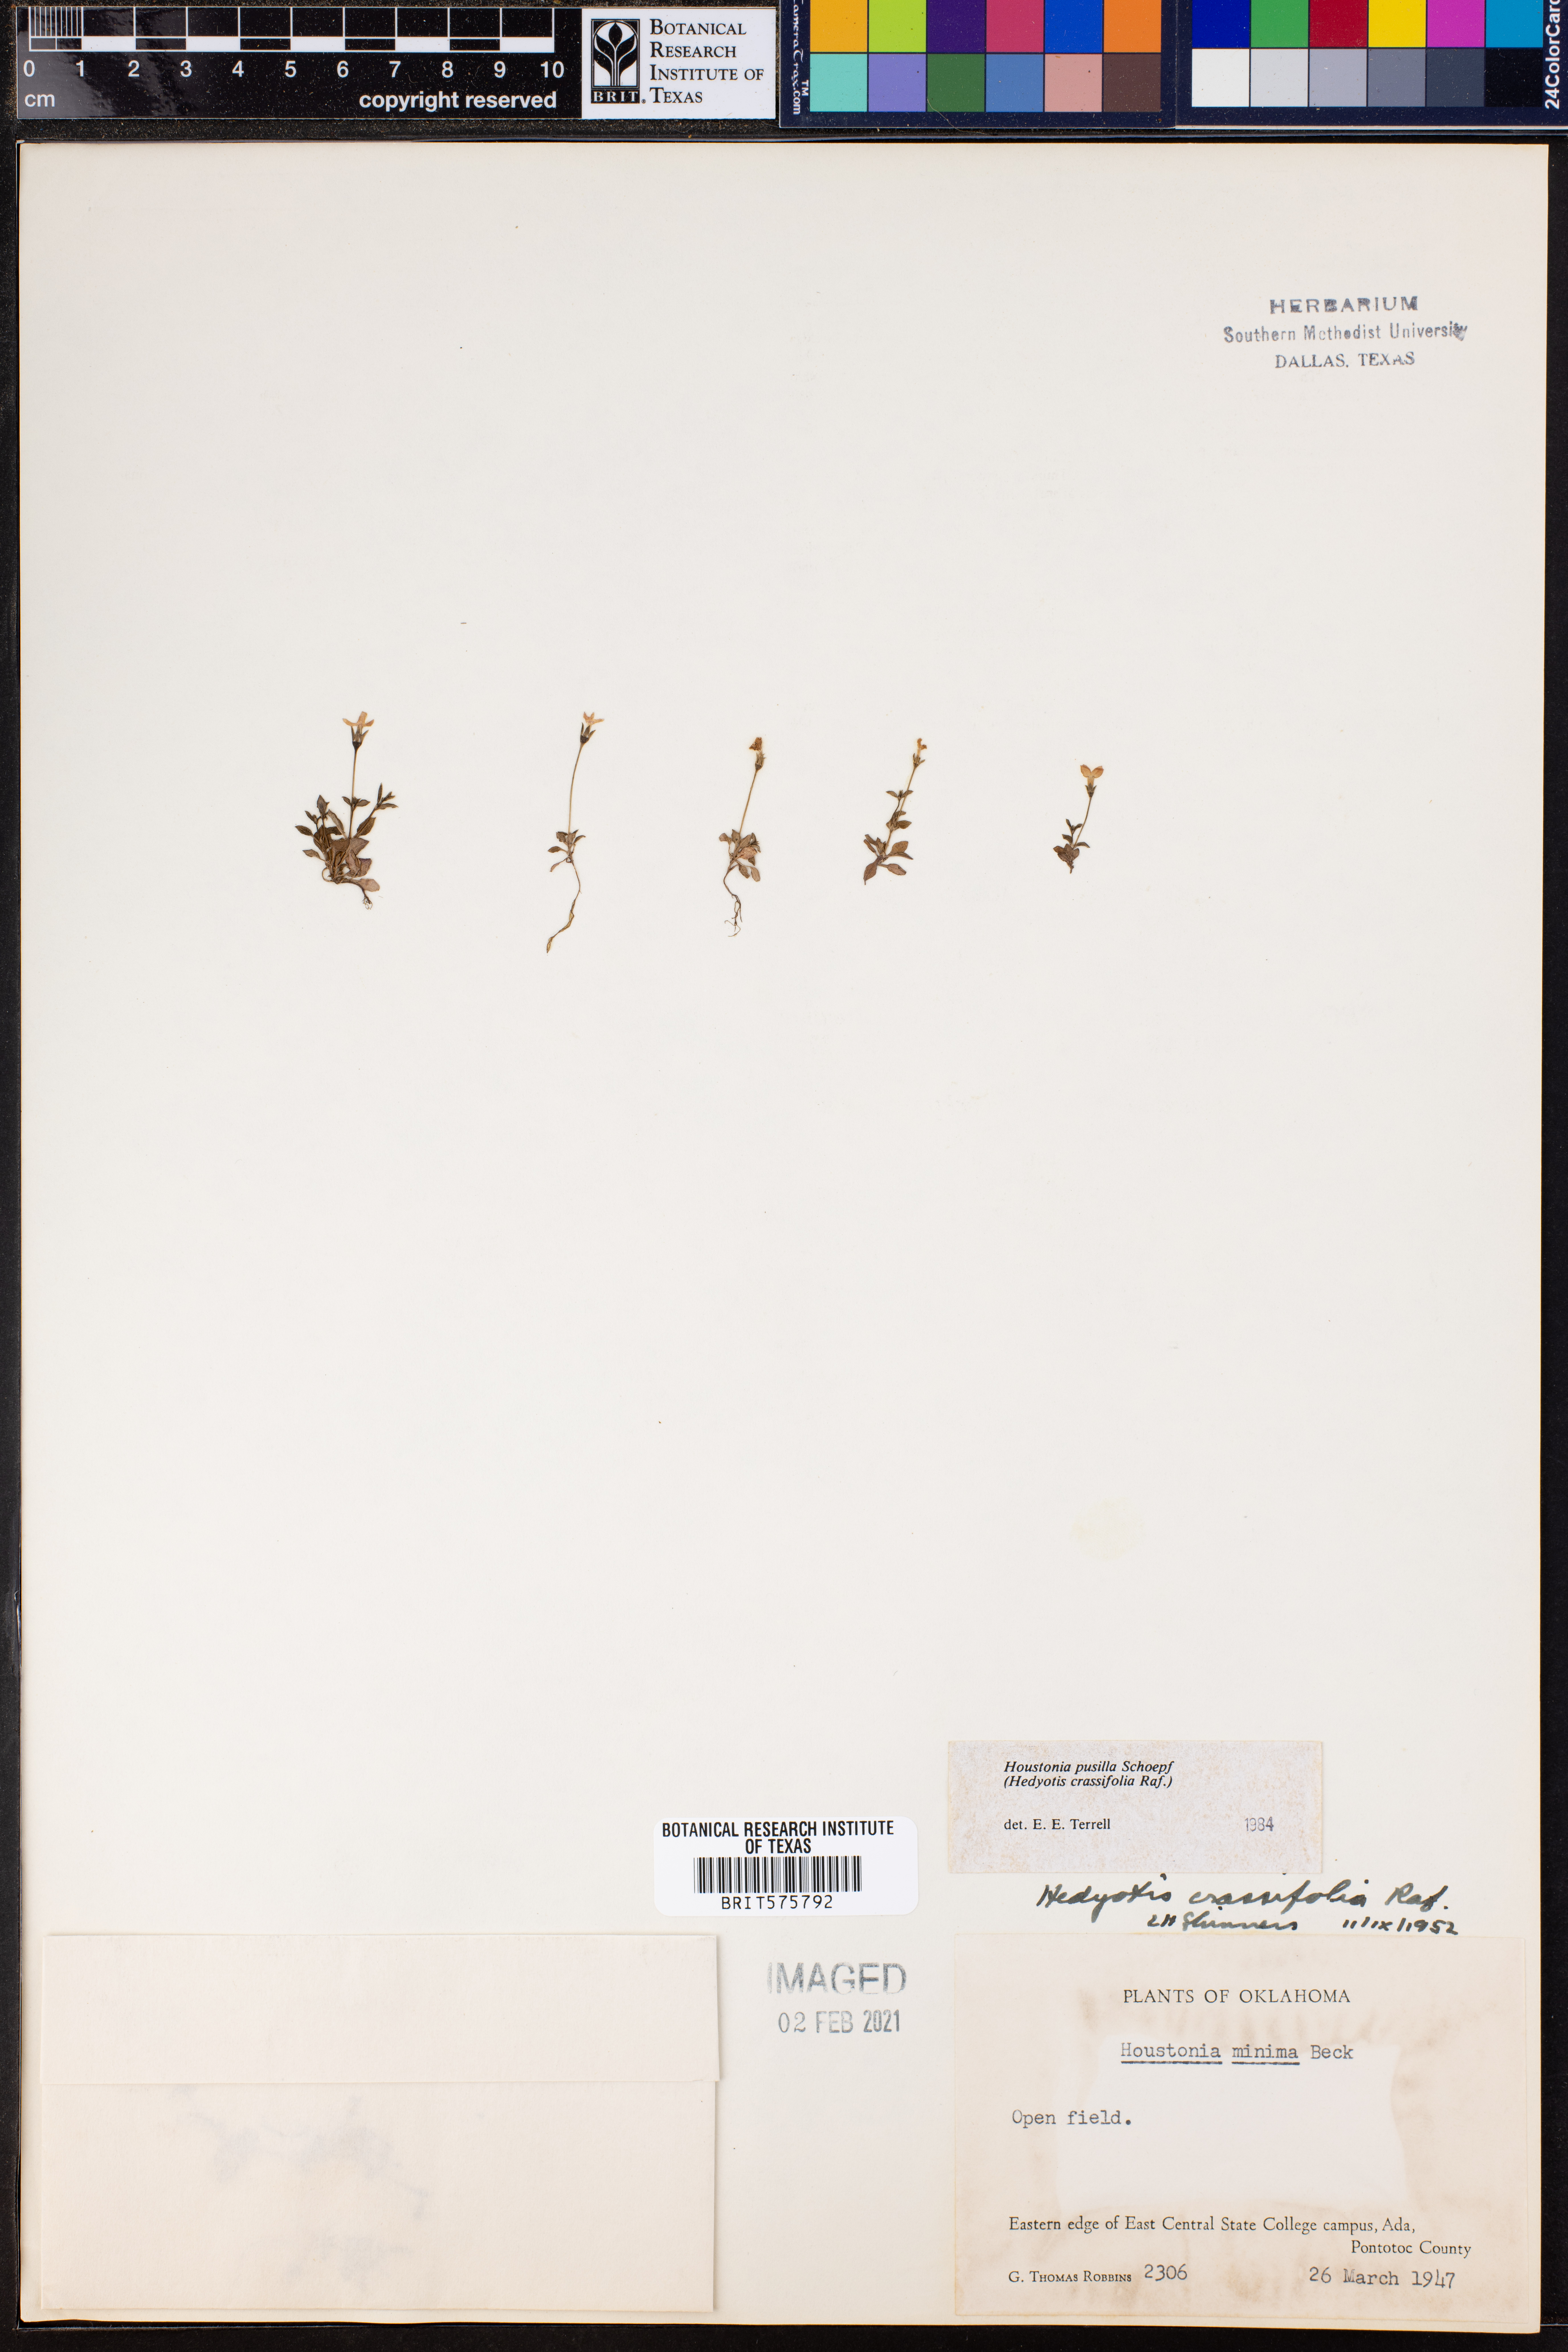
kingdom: Plantae
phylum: Tracheophyta
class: Magnoliopsida
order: Gentianales
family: Rubiaceae
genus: Houstonia
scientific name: Houstonia pusilla
